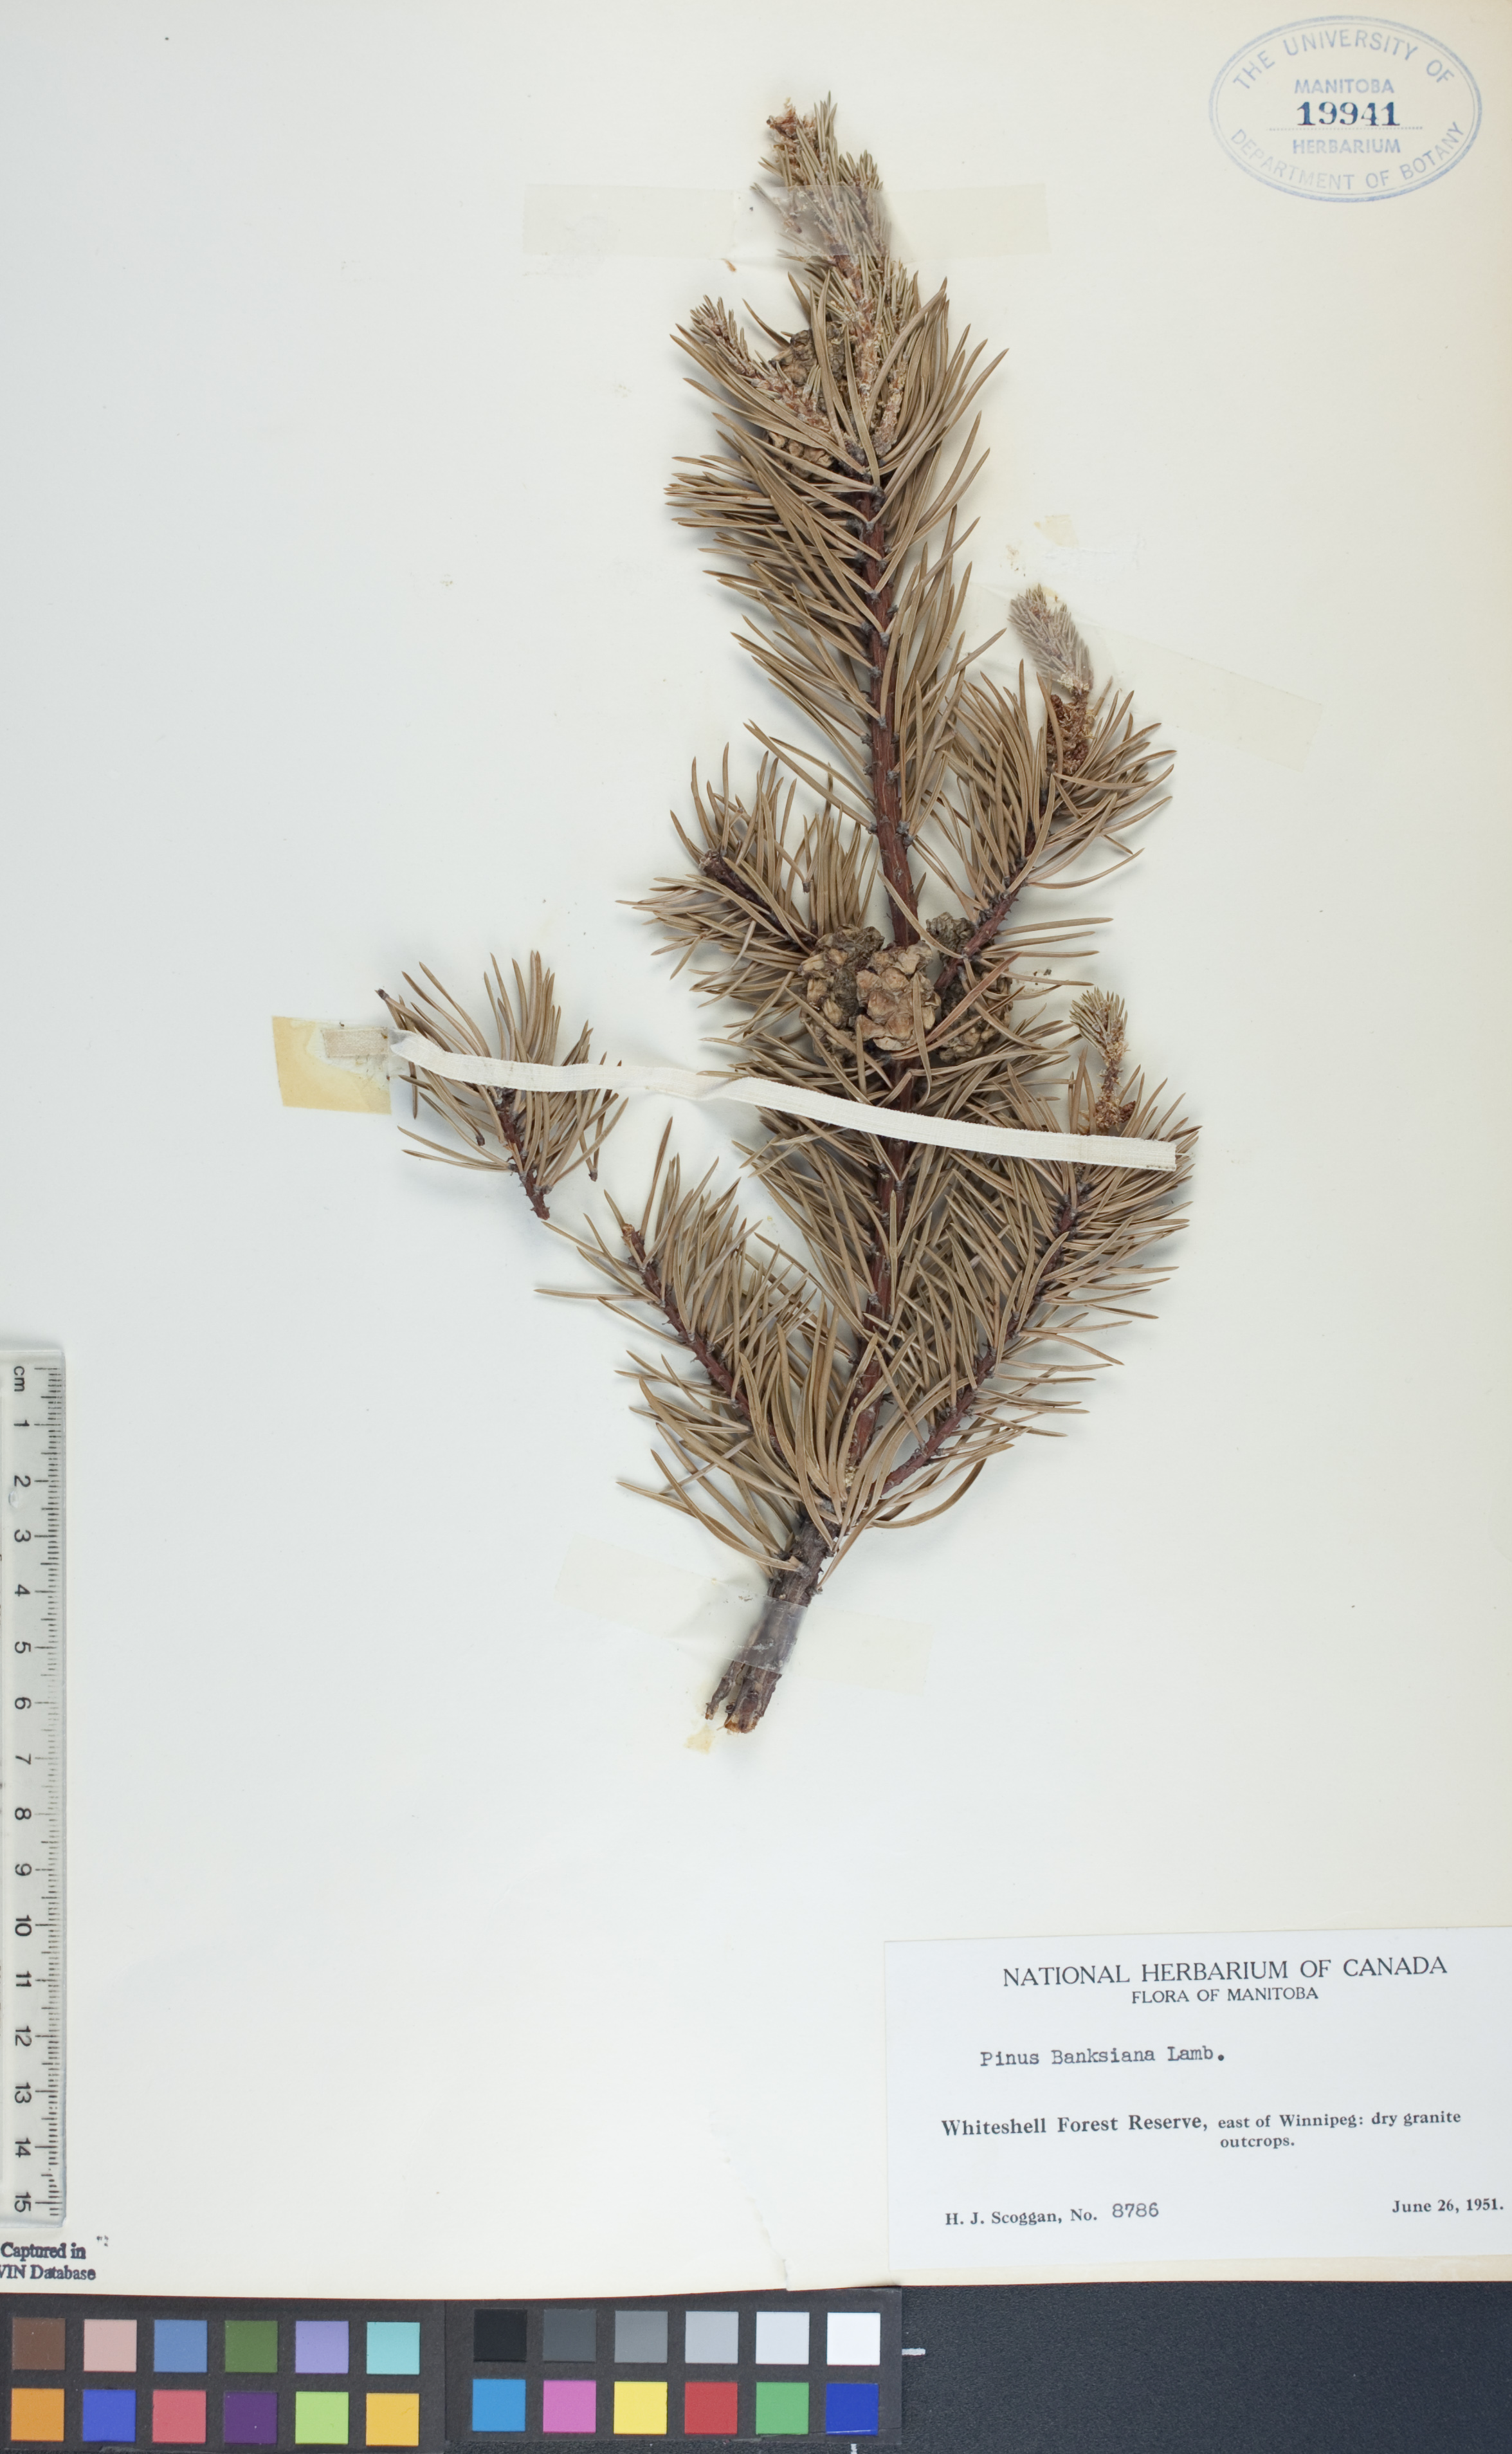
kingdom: Plantae
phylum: Tracheophyta
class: Pinopsida
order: Pinales
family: Pinaceae
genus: Pinus
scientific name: Pinus banksiana
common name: Jack pine
